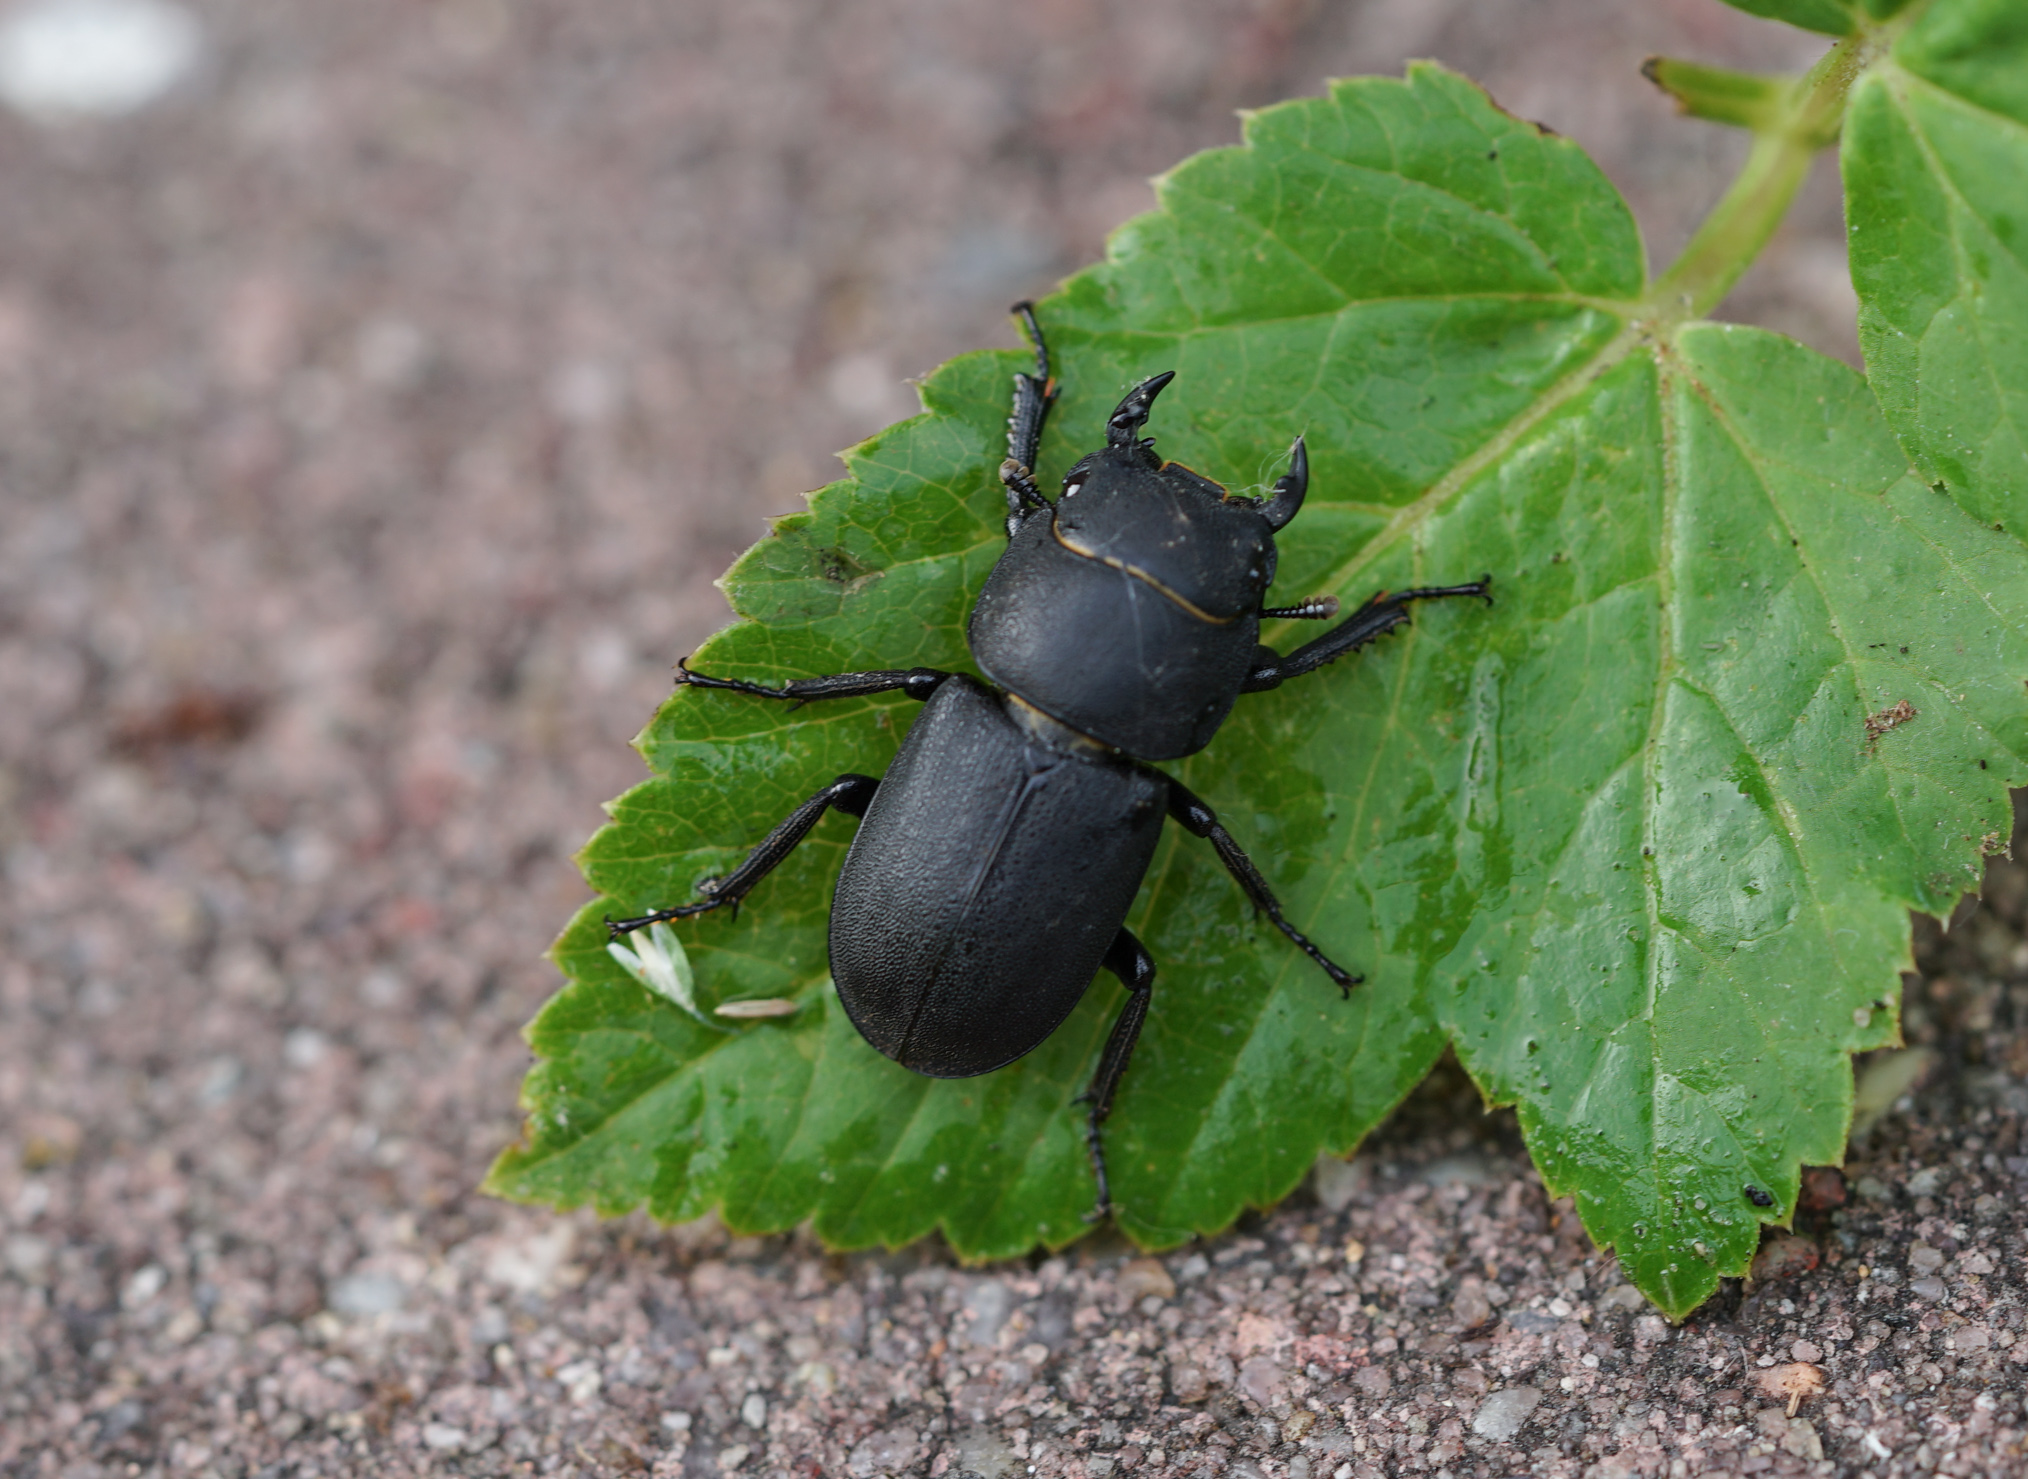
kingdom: Animalia
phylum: Arthropoda
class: Insecta
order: Coleoptera
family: Lucanidae
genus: Dorcus
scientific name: Dorcus parallelipipedus
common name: Lesser stag beetle
